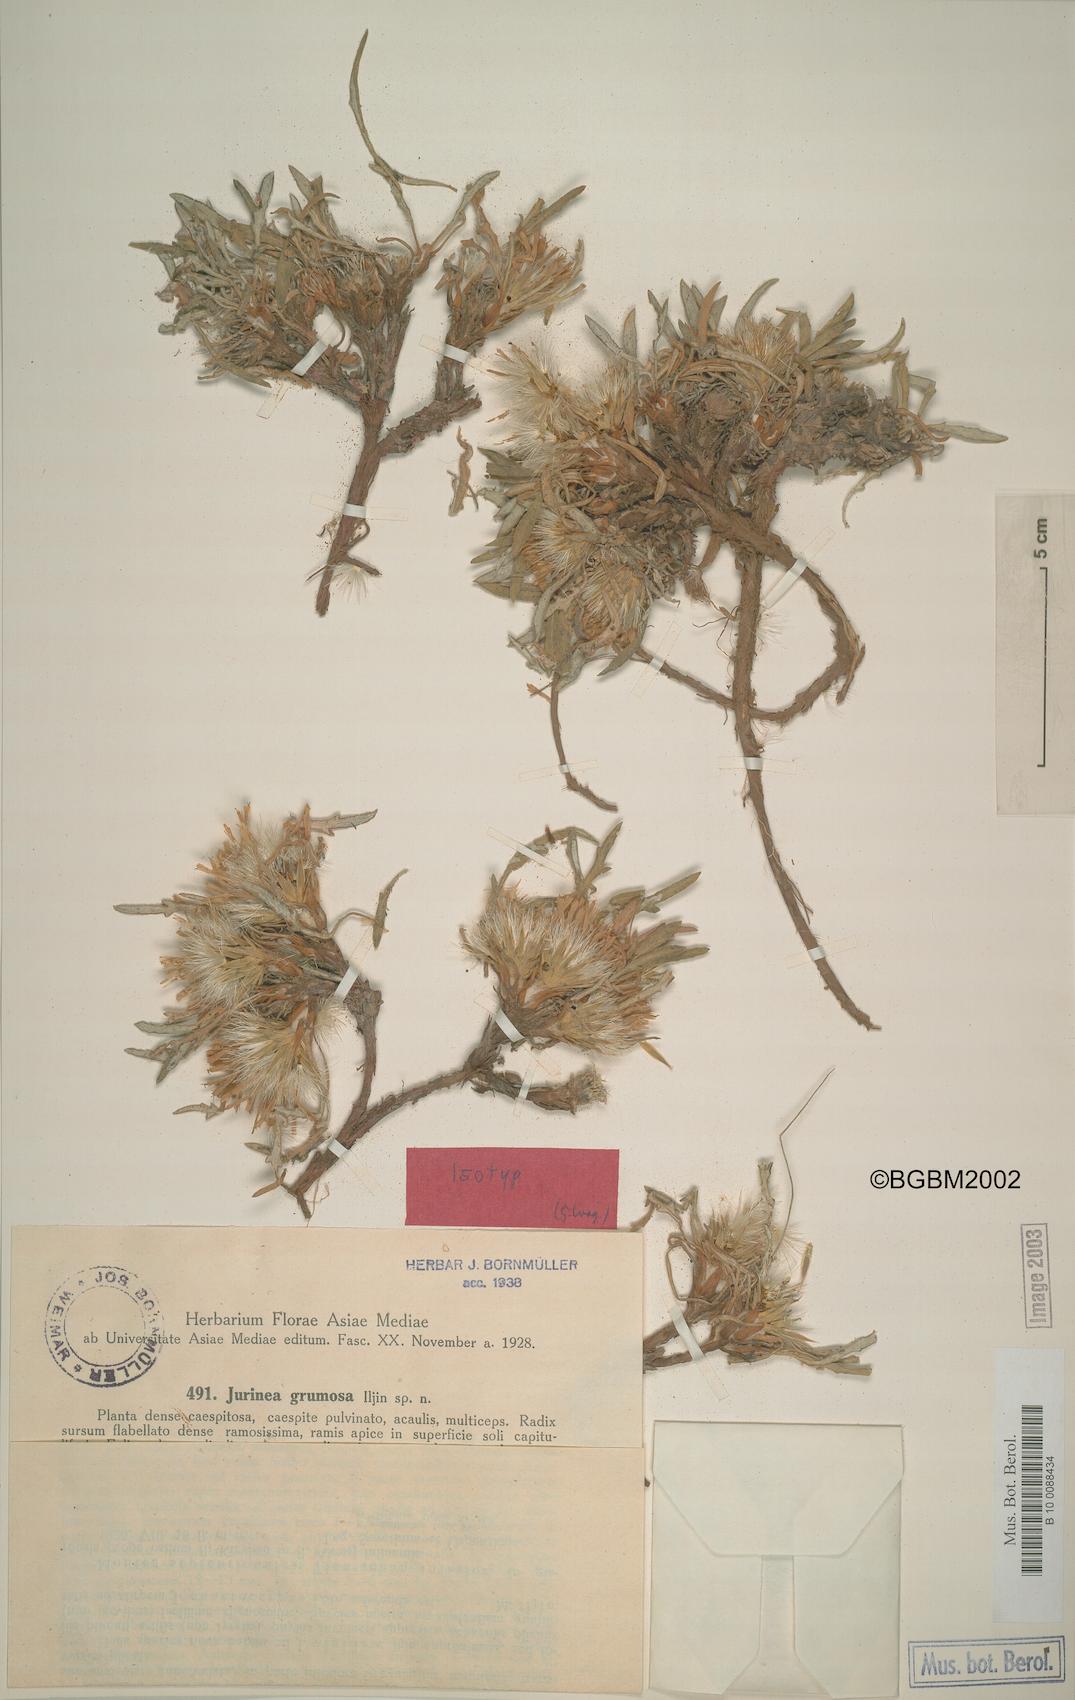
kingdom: Plantae
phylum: Tracheophyta
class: Magnoliopsida
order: Asterales
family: Asteraceae
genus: Jurinea
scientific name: Jurinea grumosa
